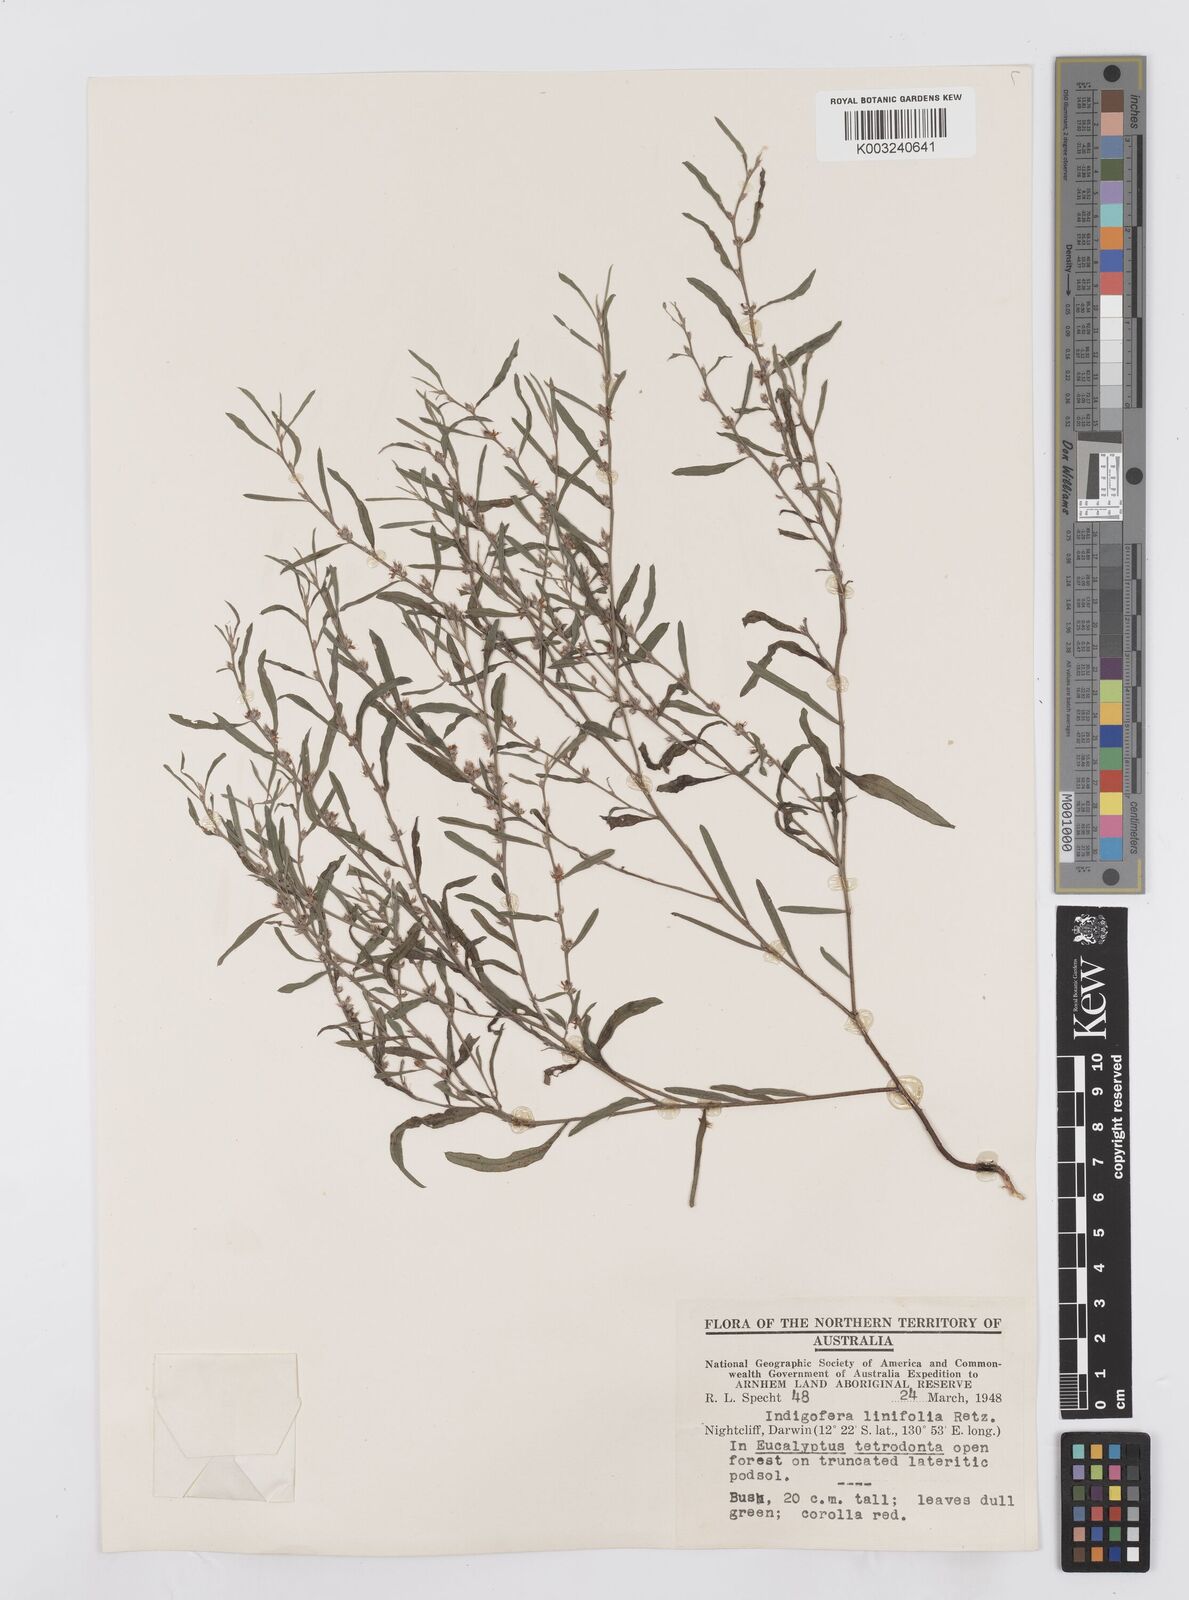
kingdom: Plantae
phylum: Tracheophyta
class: Magnoliopsida
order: Fabales
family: Fabaceae
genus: Indigofera
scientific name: Indigofera linifolia
